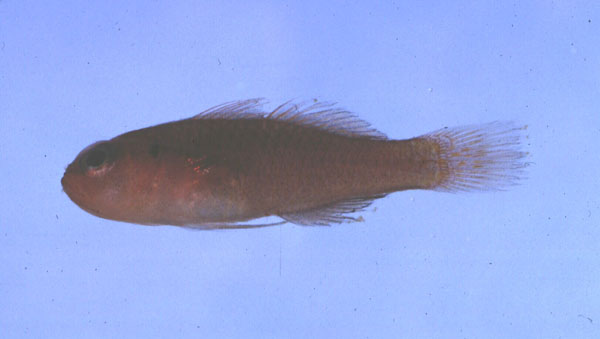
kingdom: Animalia
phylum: Chordata
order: Perciformes
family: Gobiidae
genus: Trimma
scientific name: Trimma stobbsi
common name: Stobb's dwarfgoby
